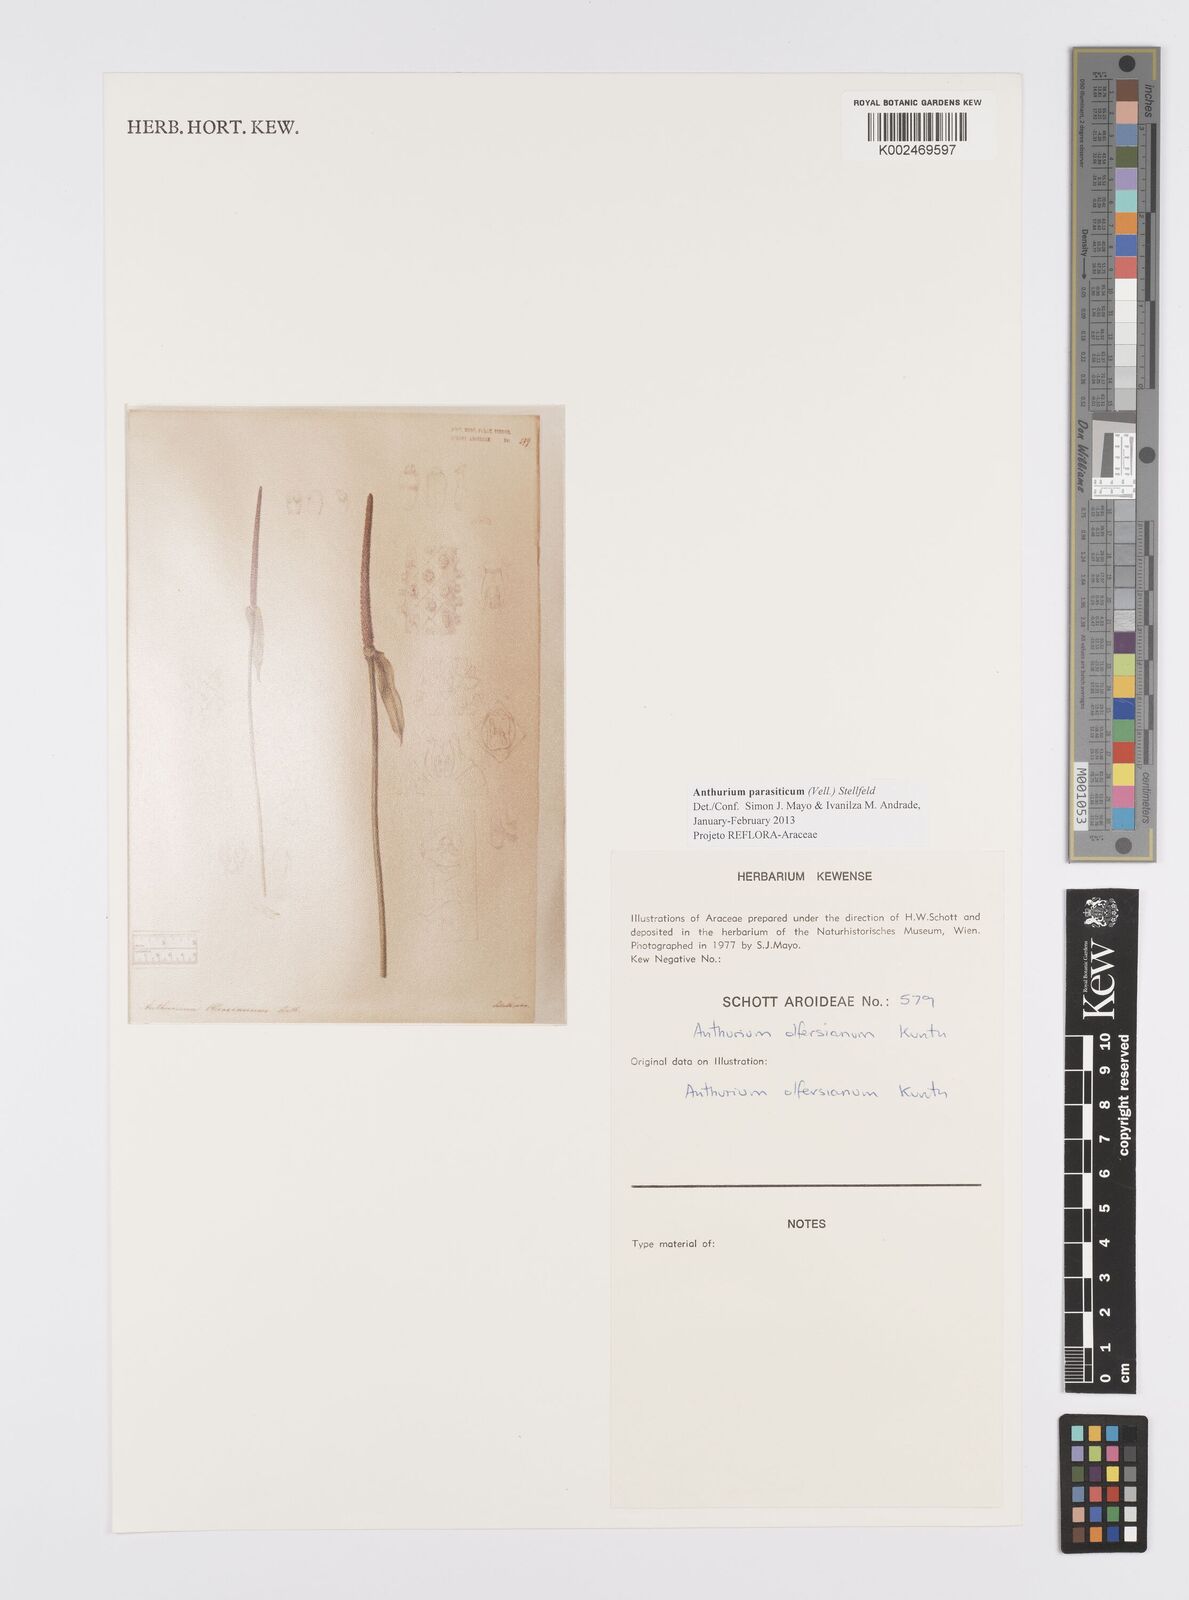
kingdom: Plantae
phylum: Tracheophyta
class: Liliopsida
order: Alismatales
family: Araceae
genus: Anthurium
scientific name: Anthurium parasiticum
